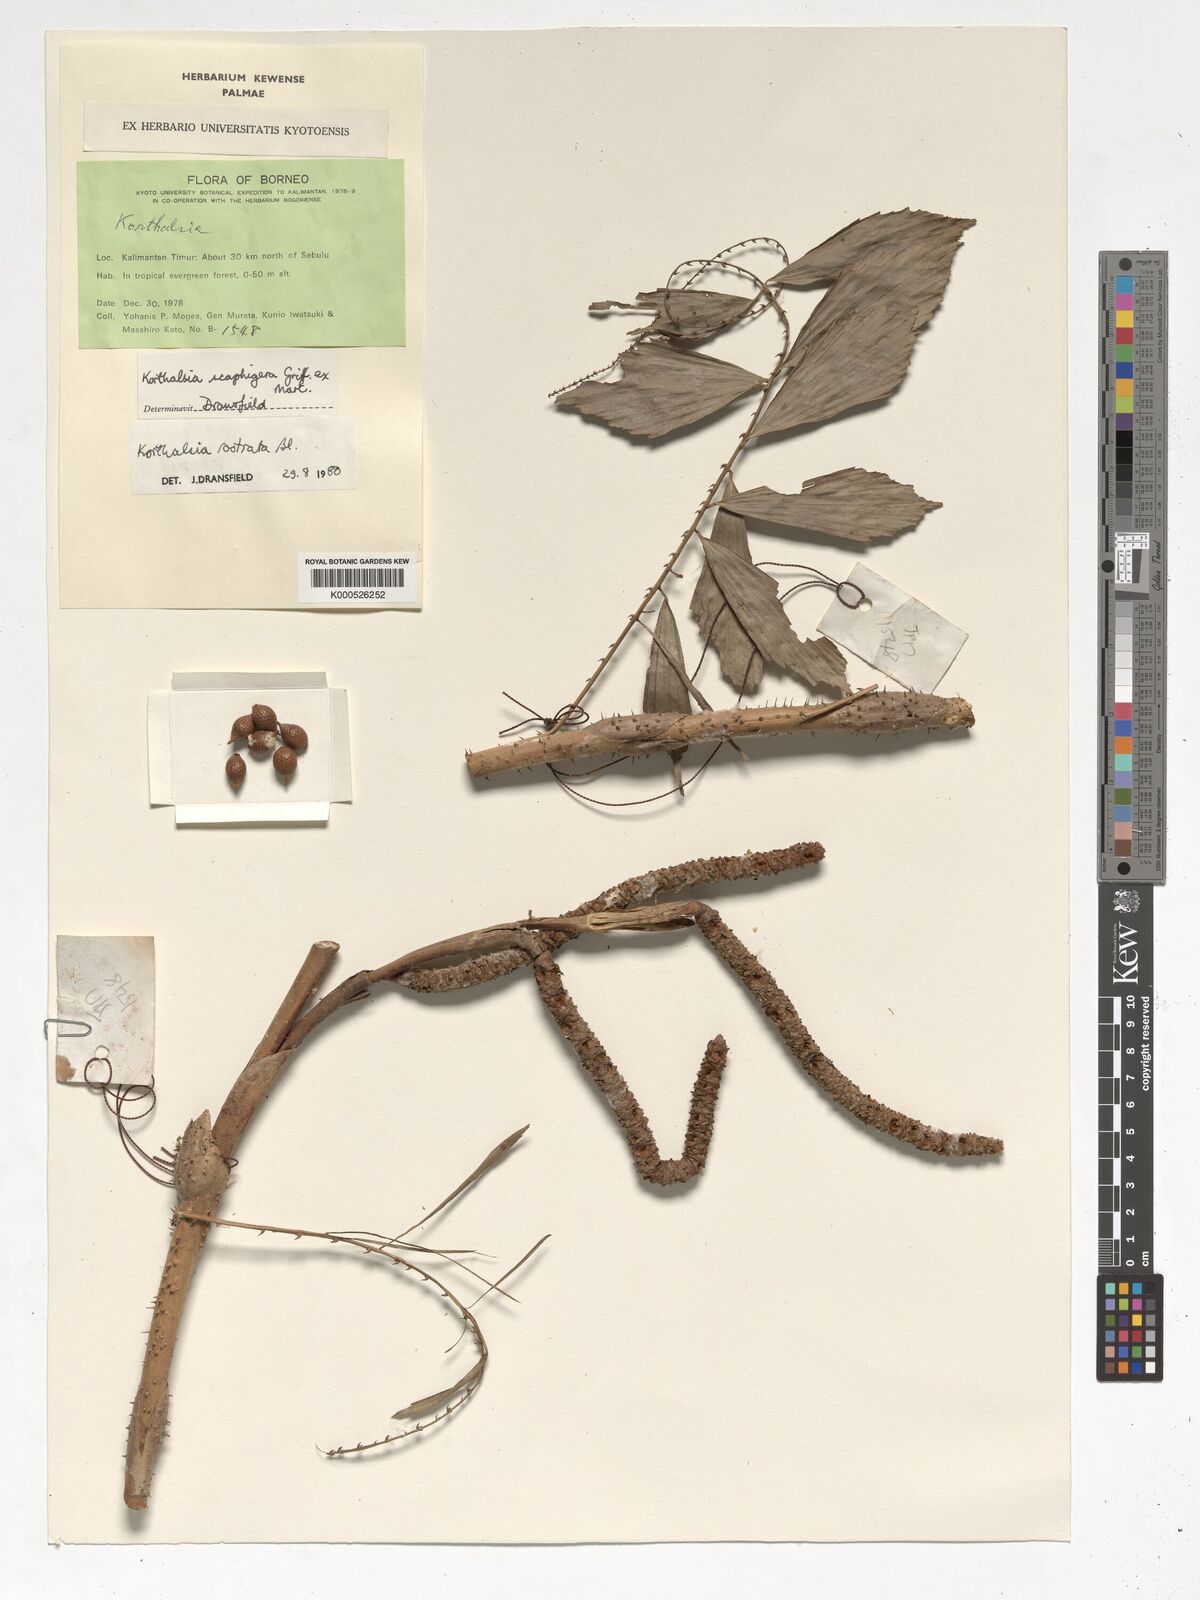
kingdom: Plantae
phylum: Tracheophyta
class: Liliopsida
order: Arecales
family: Arecaceae
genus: Korthalsia
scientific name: Korthalsia rostrata
